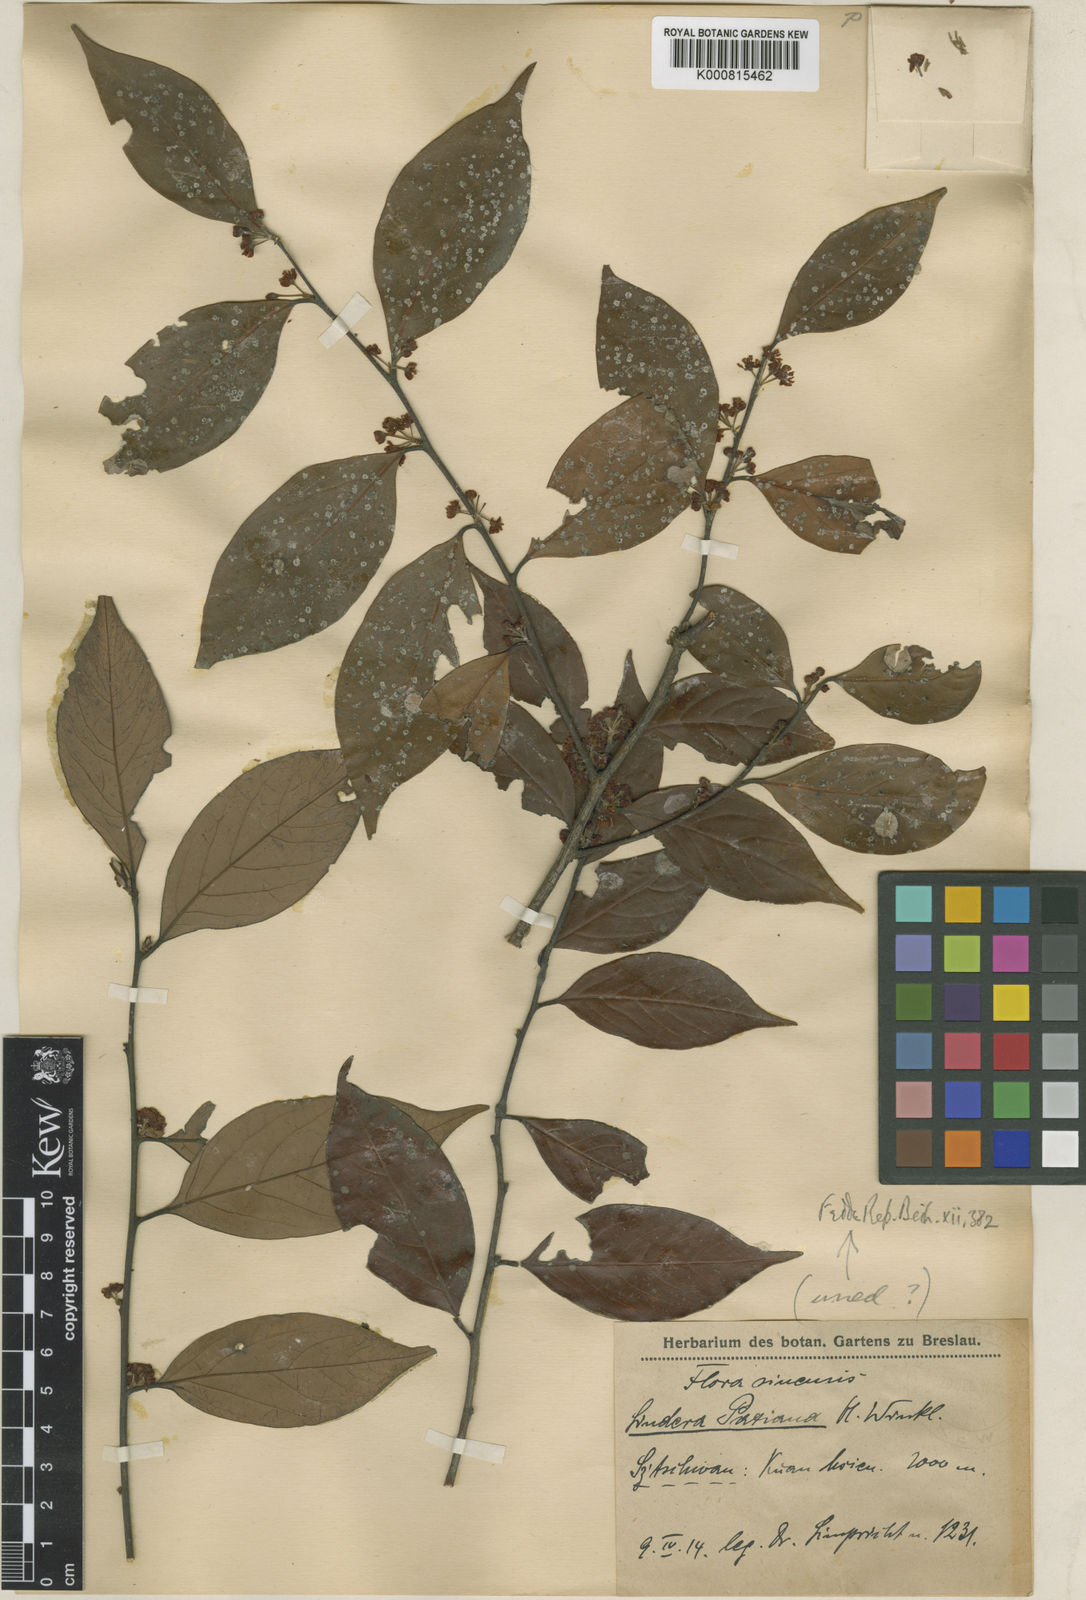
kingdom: Plantae
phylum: Tracheophyta
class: Magnoliopsida
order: Laurales
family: Lauraceae
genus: Lindera
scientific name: Lindera communis
